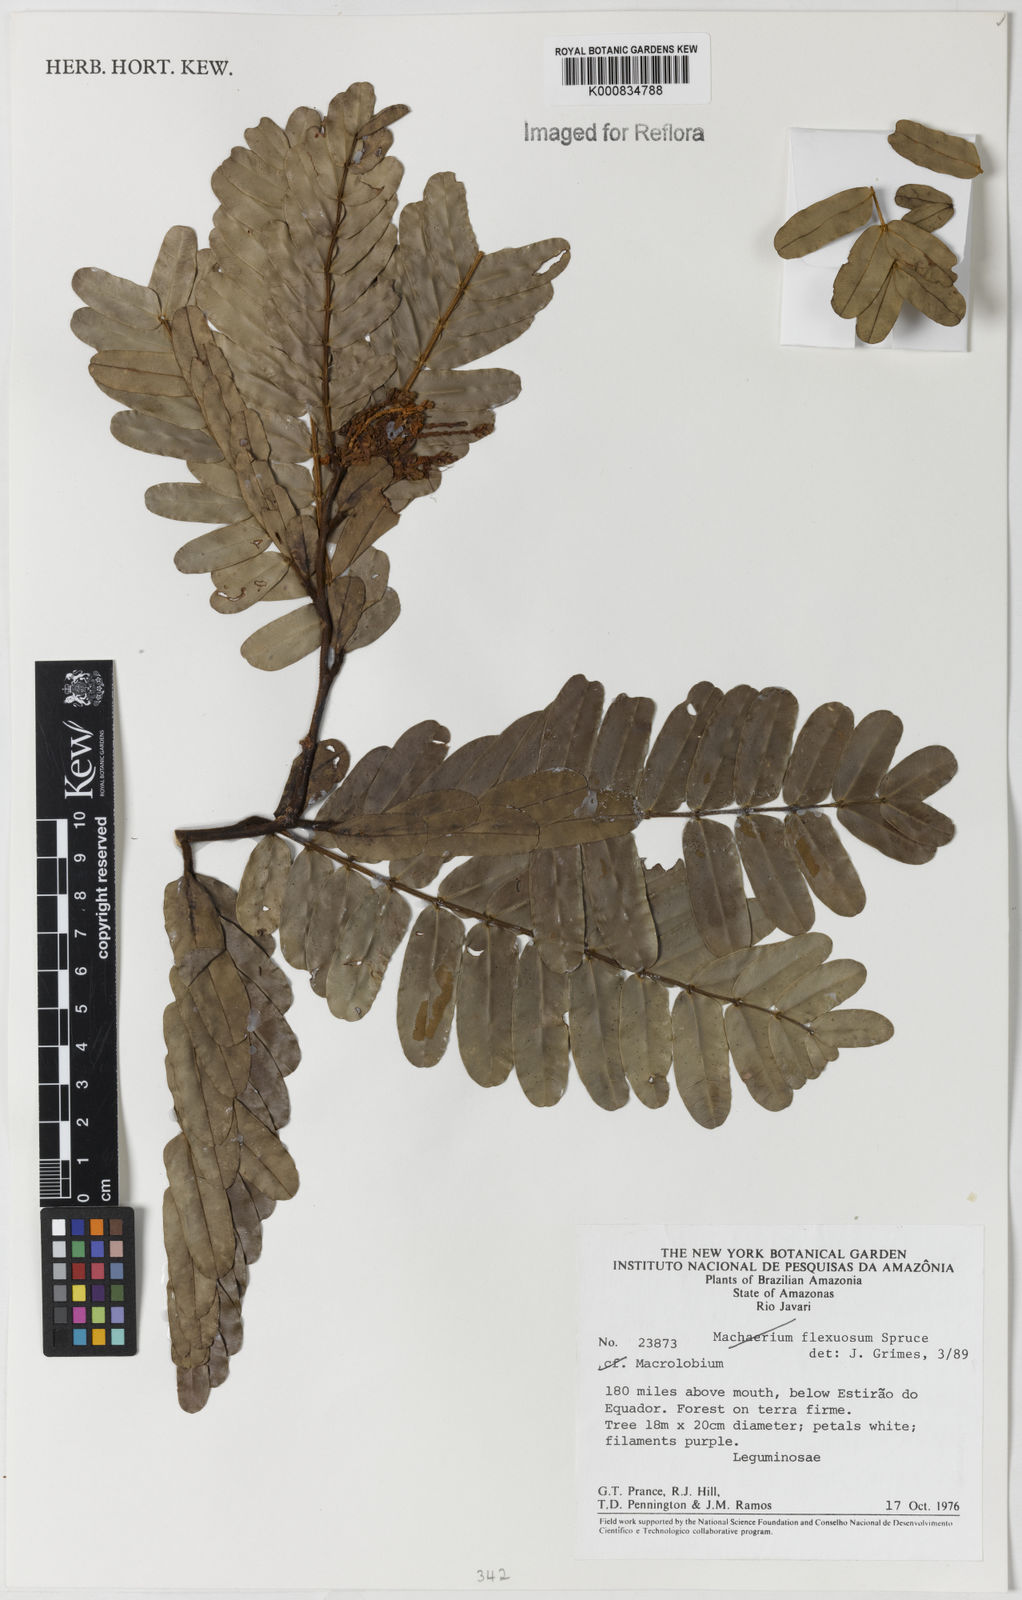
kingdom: Plantae
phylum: Tracheophyta
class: Magnoliopsida
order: Fabales
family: Fabaceae
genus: Macrolobium
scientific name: Macrolobium
